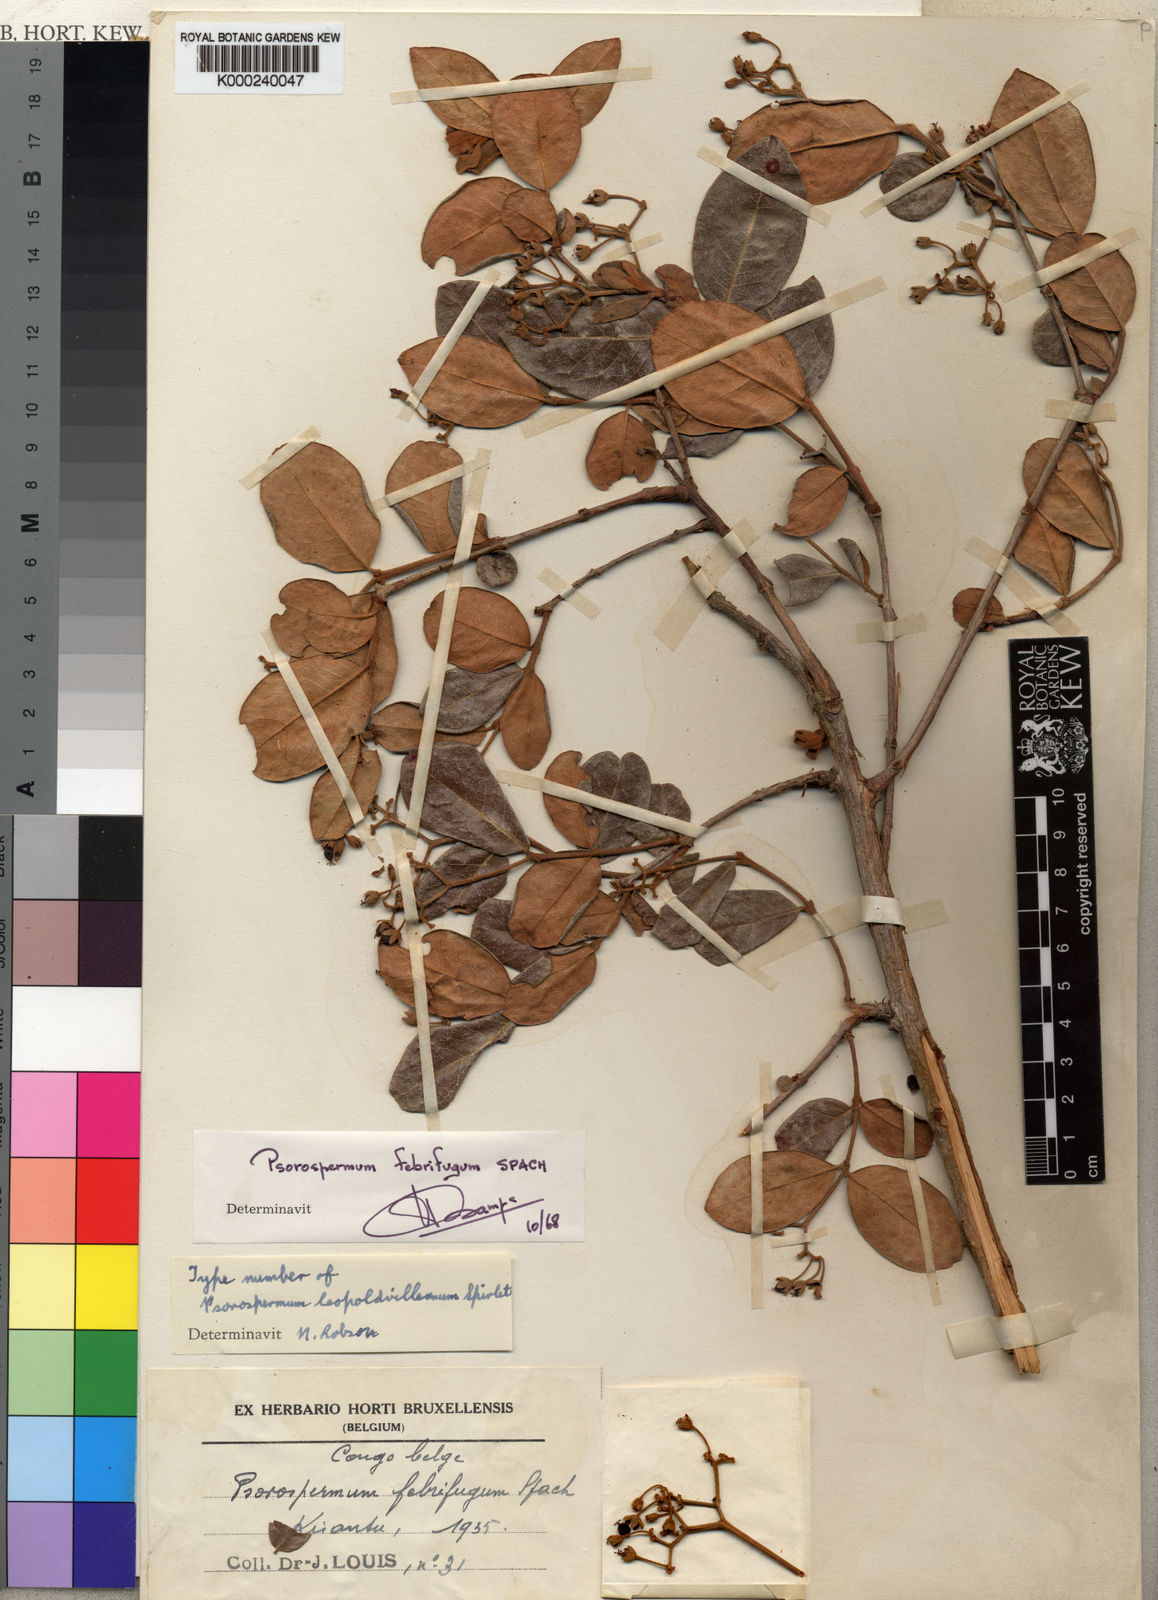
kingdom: Plantae
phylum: Tracheophyta
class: Magnoliopsida
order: Malpighiales
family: Hypericaceae
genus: Psorospermum
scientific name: Psorospermum febrifugum
